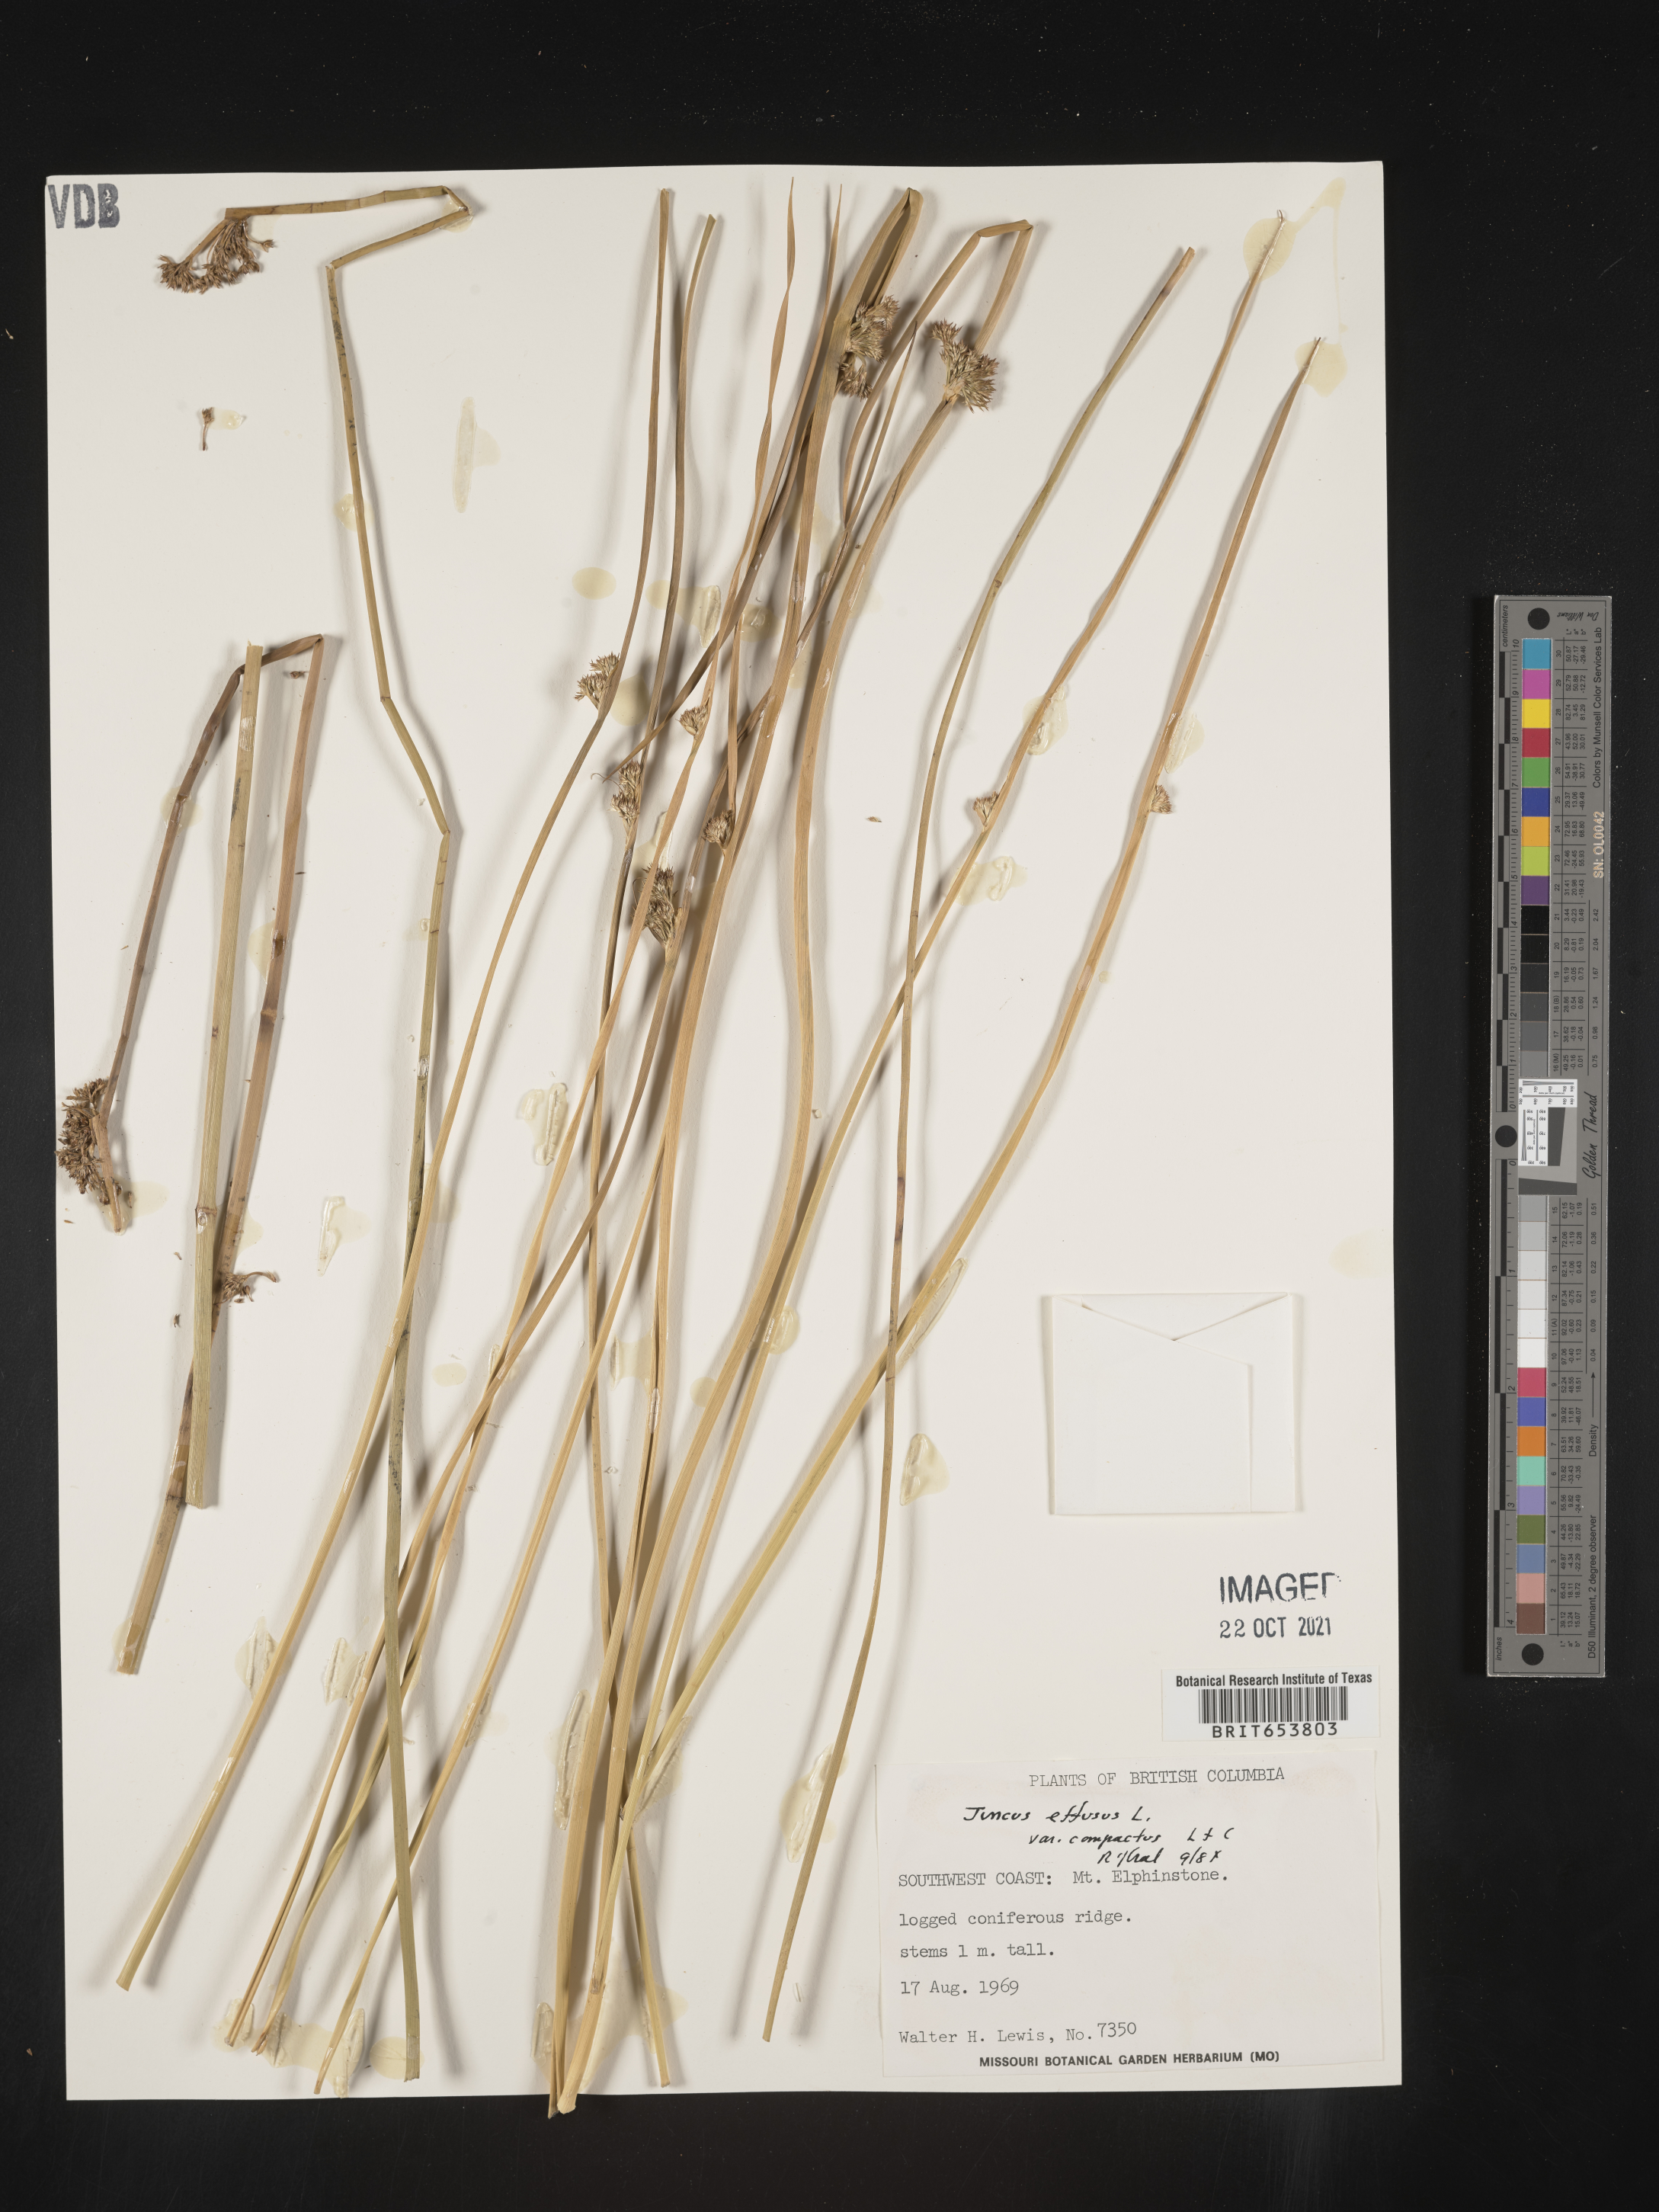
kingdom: Plantae
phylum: Tracheophyta
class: Liliopsida
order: Poales
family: Juncaceae
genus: Juncus
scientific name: Juncus
